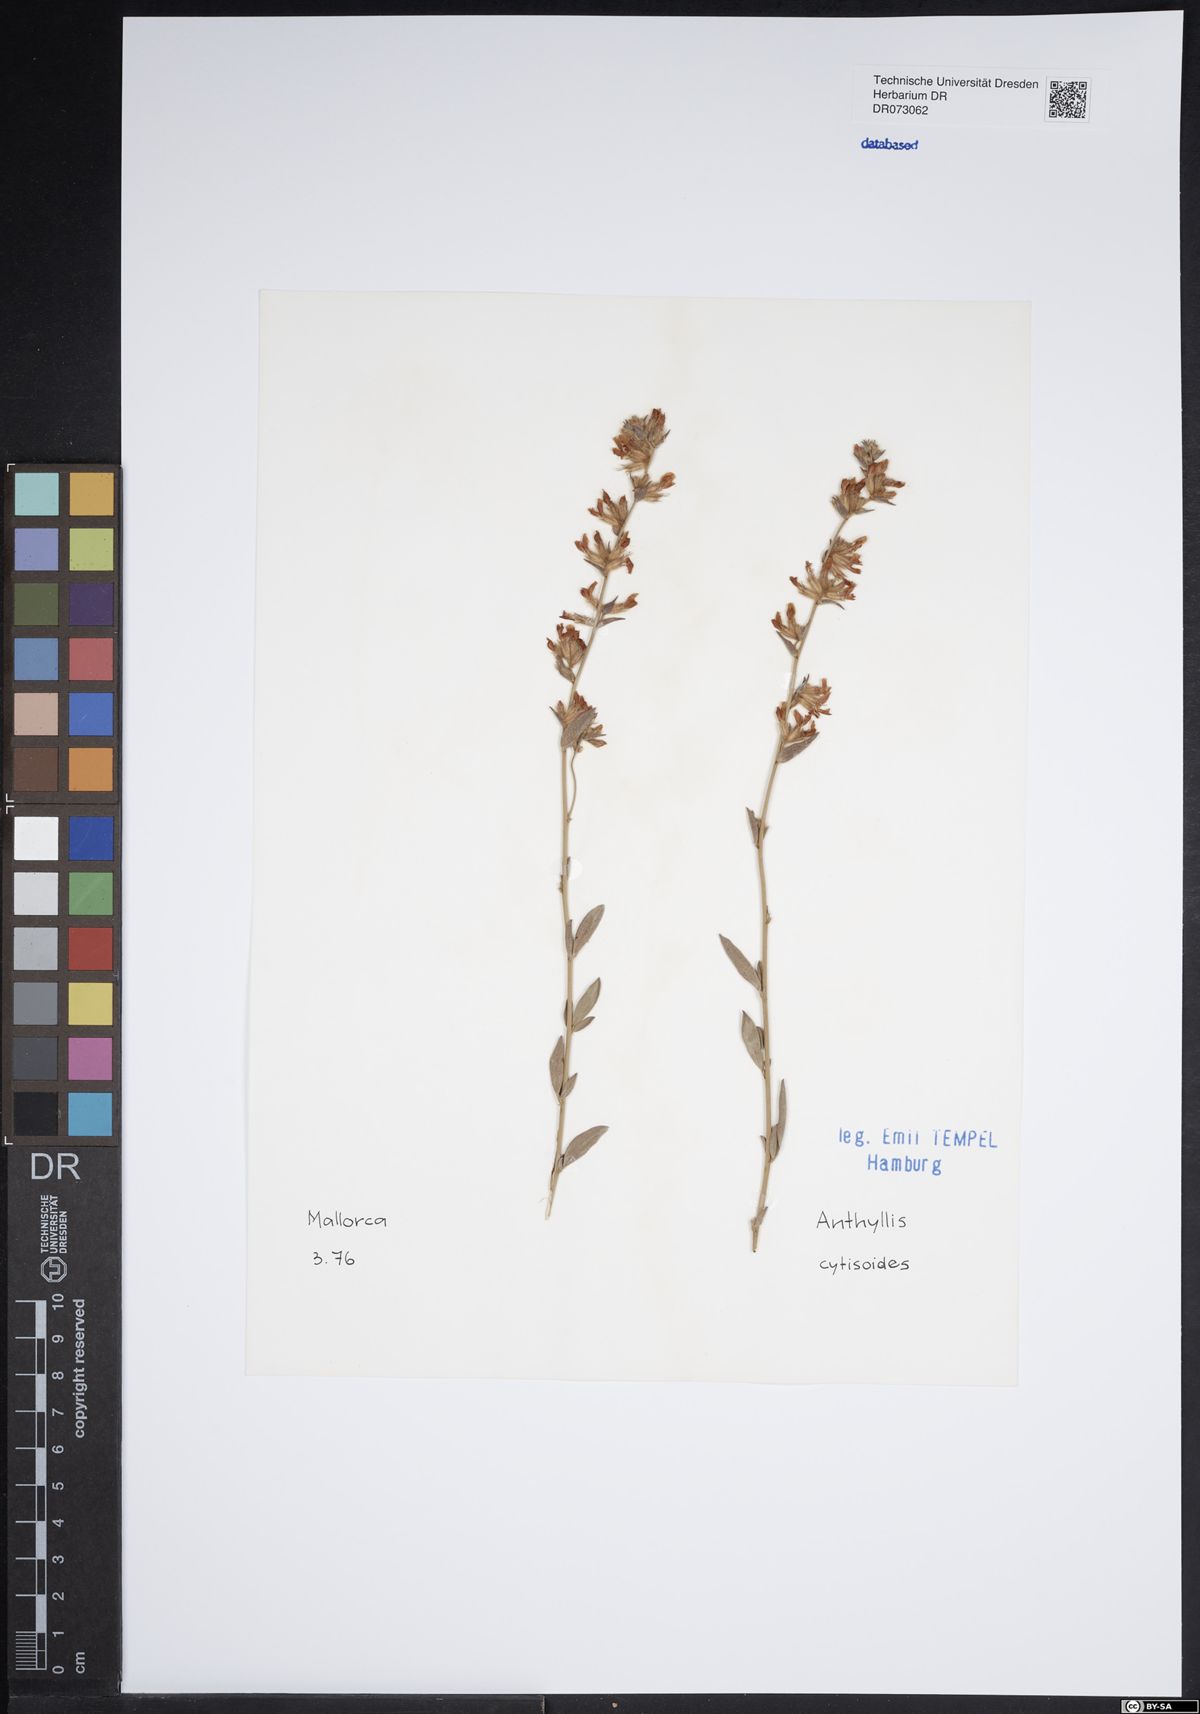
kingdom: Plantae
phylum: Tracheophyta
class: Magnoliopsida
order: Fabales
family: Fabaceae
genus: Anthyllis
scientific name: Anthyllis cytisoides
